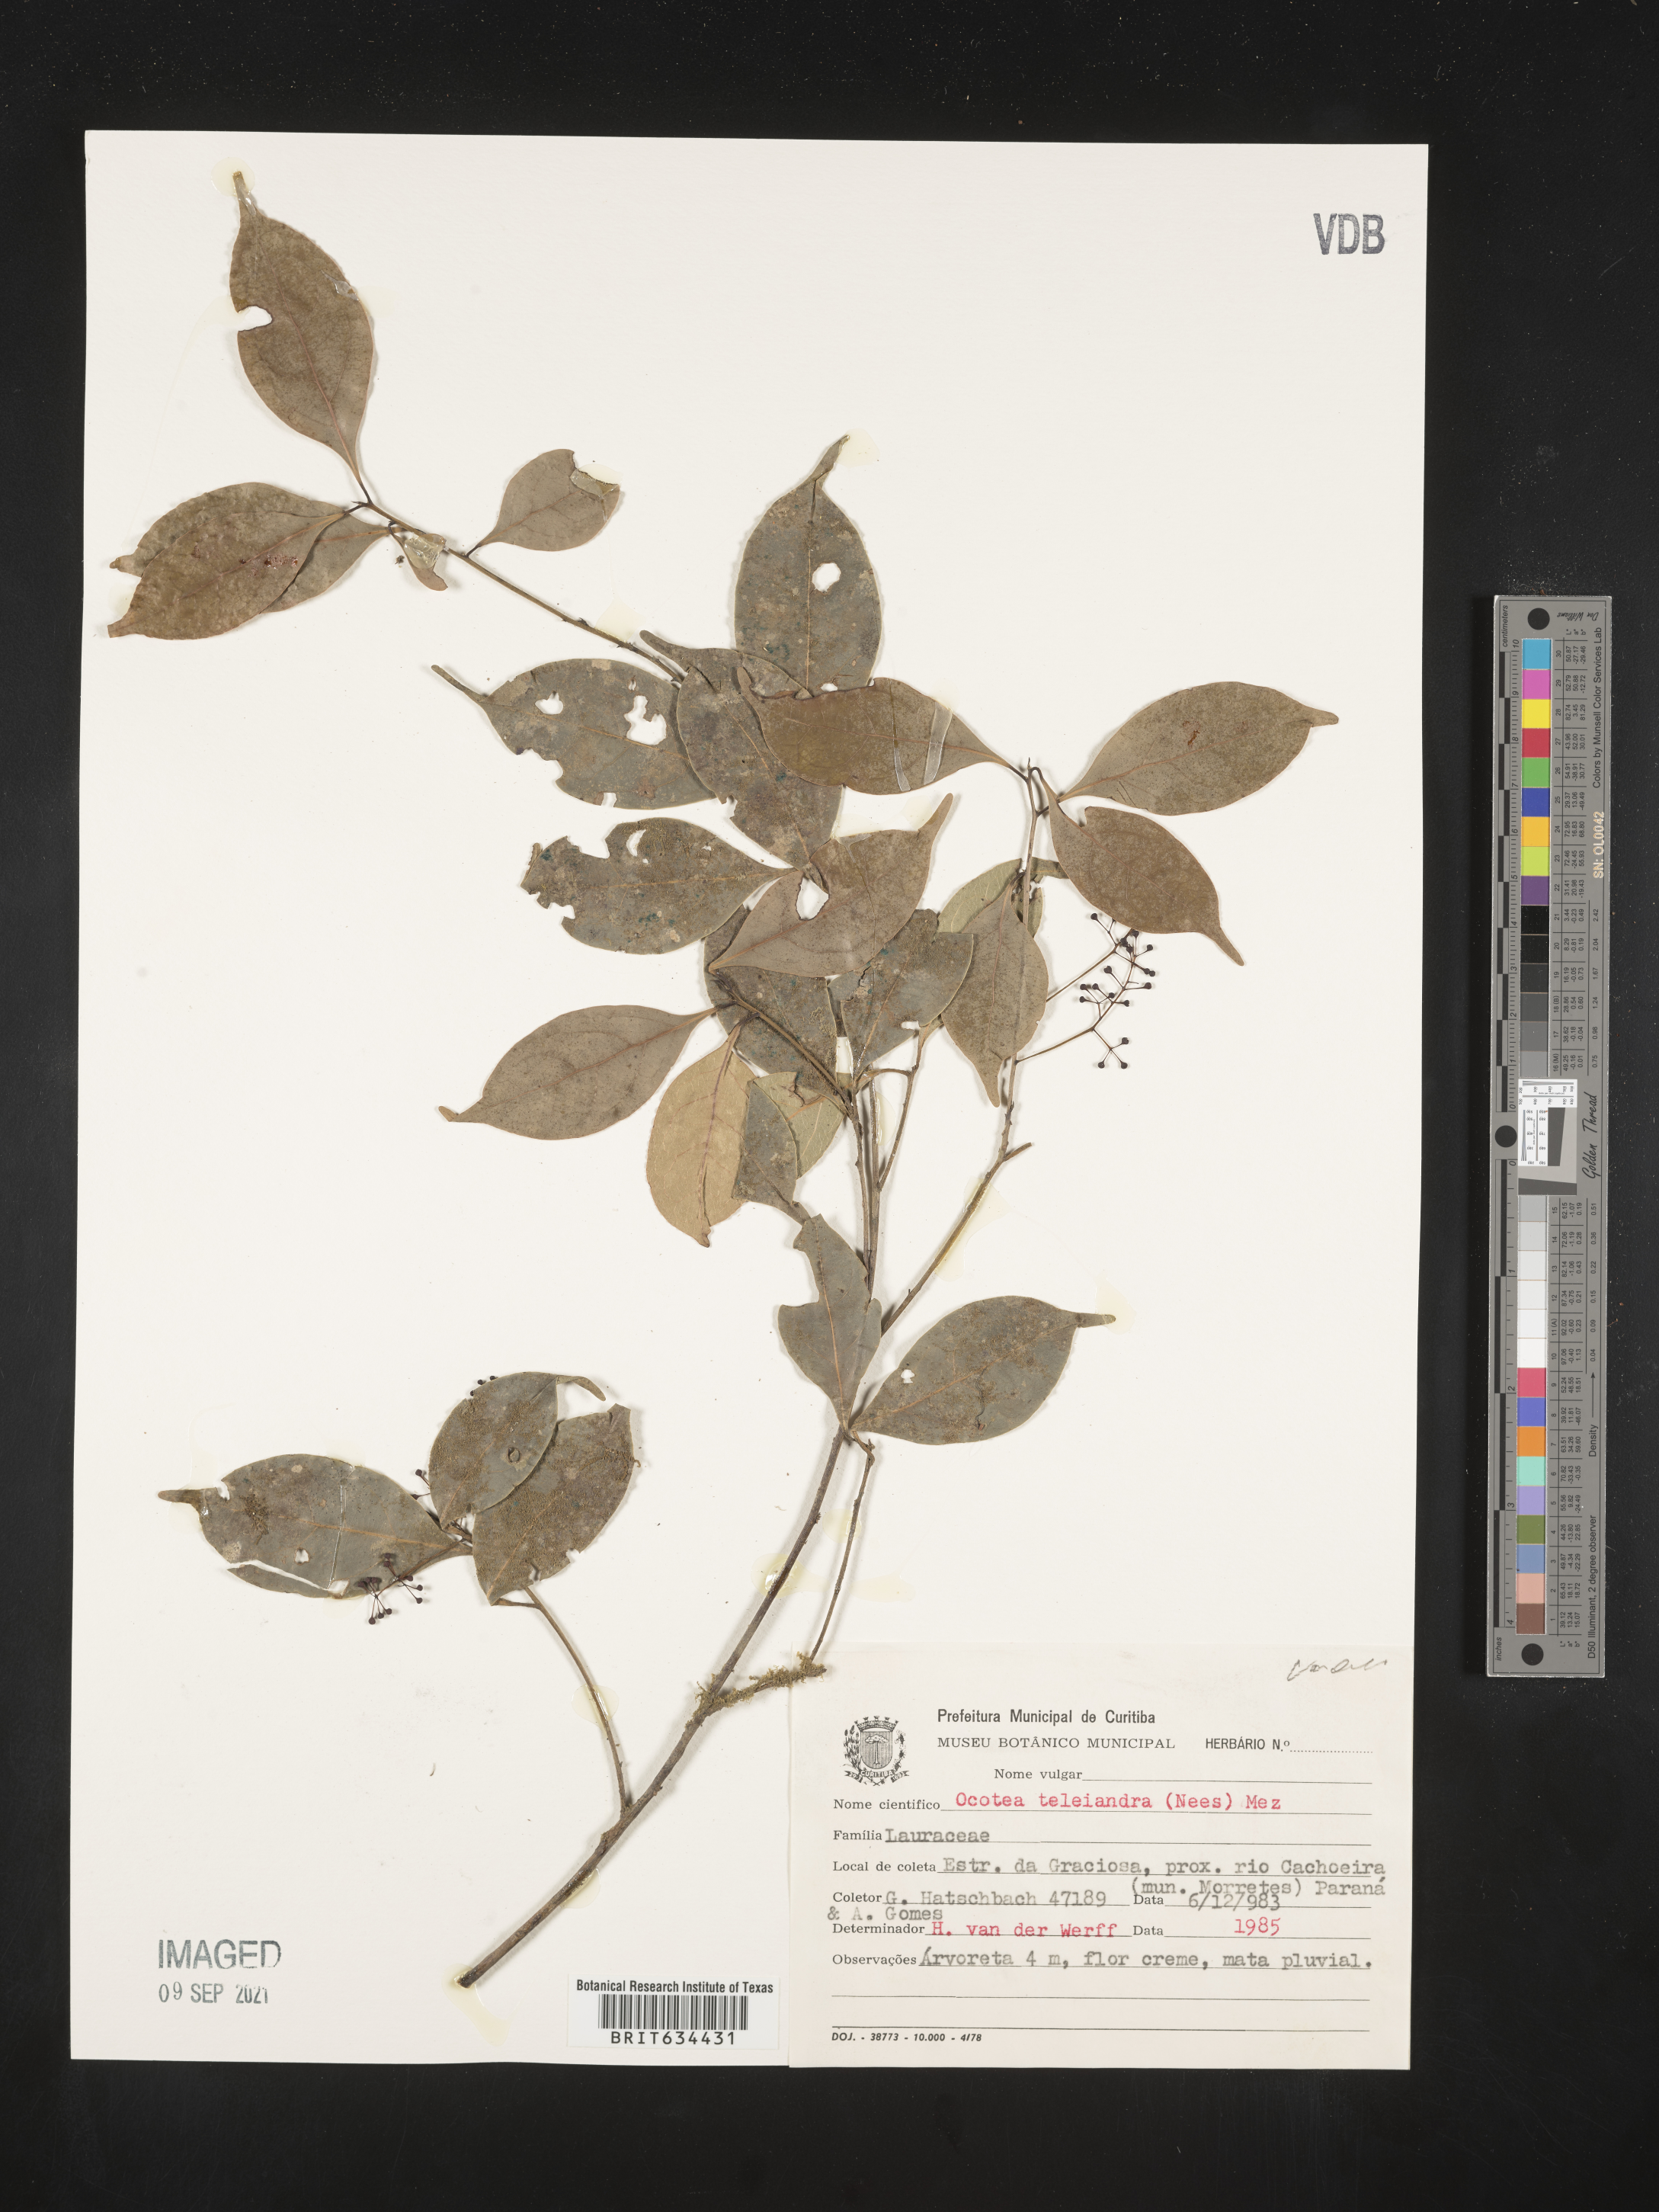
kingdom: Plantae
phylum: Tracheophyta
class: Magnoliopsida
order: Laurales
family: Lauraceae
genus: Ocotea
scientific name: Ocotea
